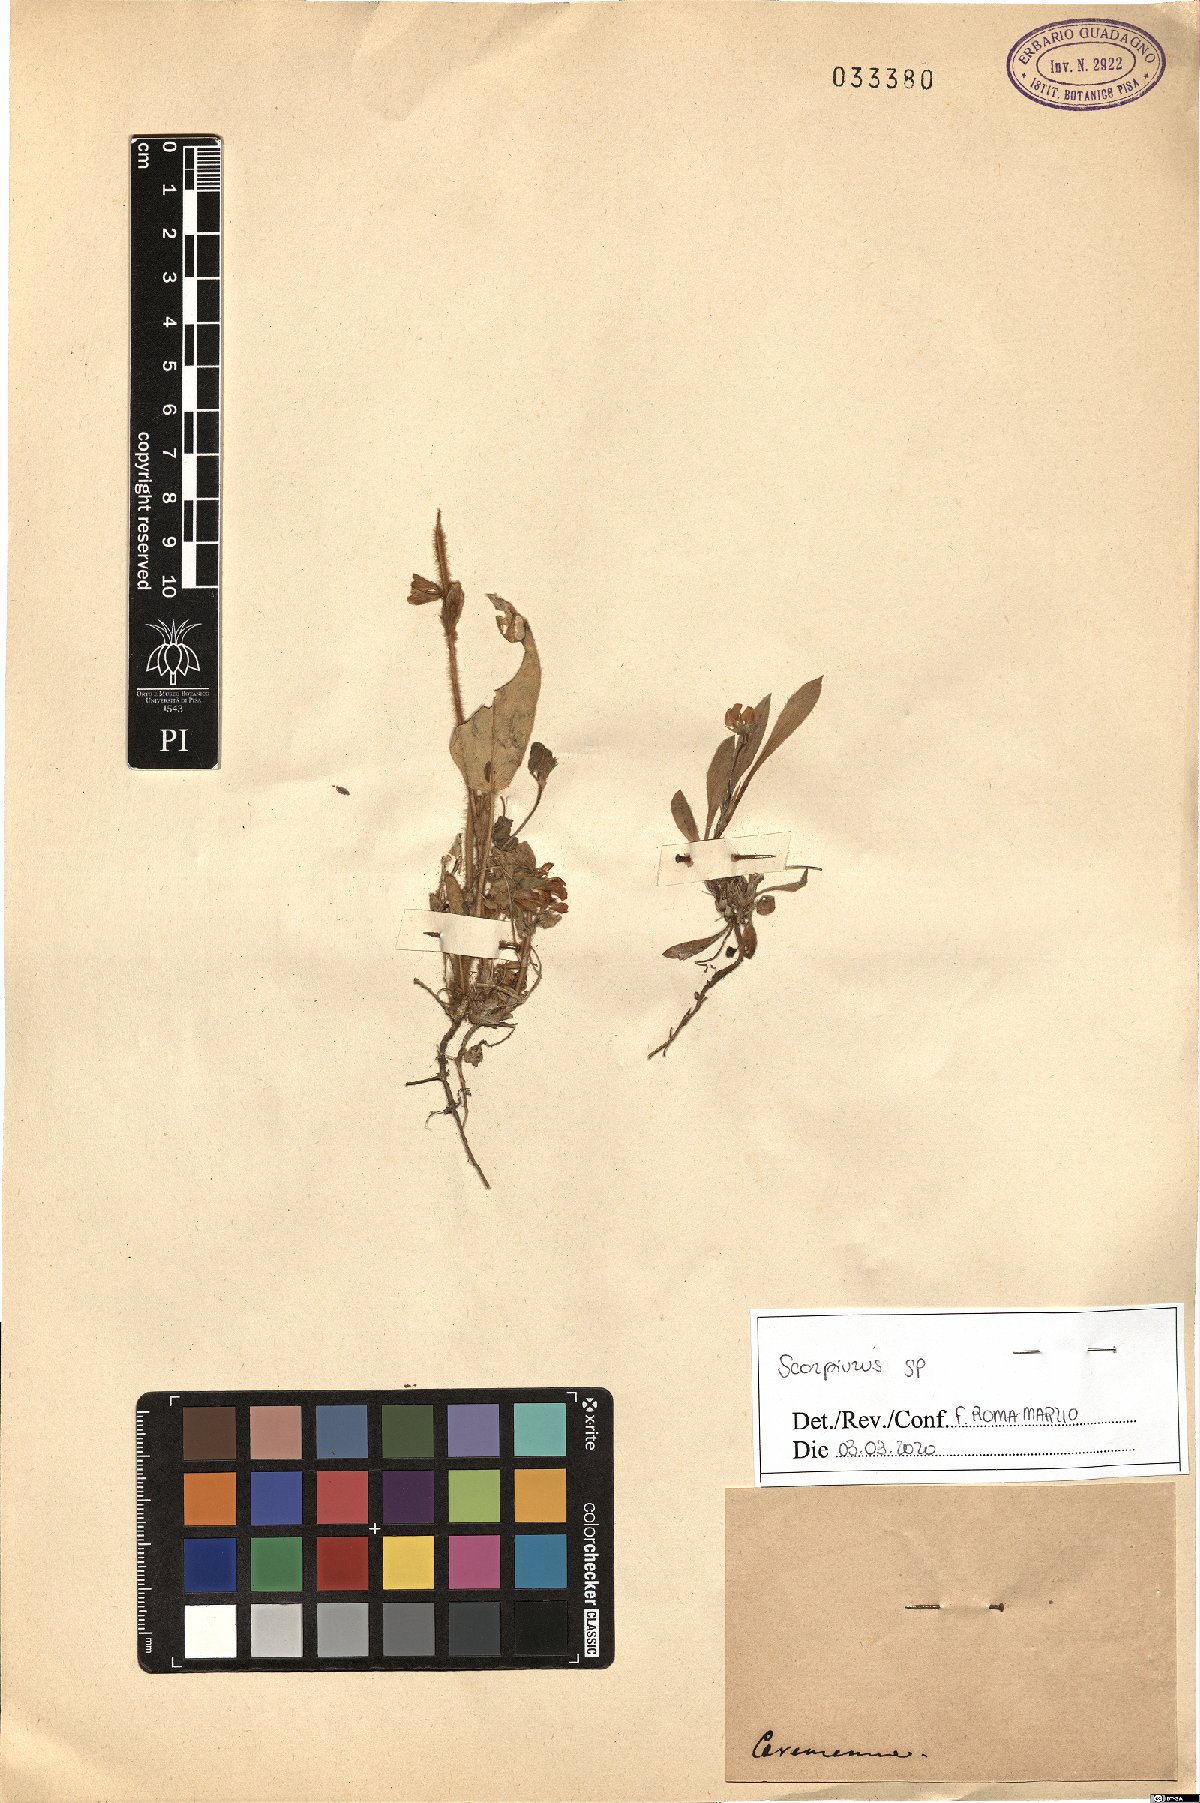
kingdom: Plantae
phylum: Tracheophyta
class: Magnoliopsida
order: Fabales
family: Fabaceae
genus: Scorpiurus
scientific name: Scorpiurus
